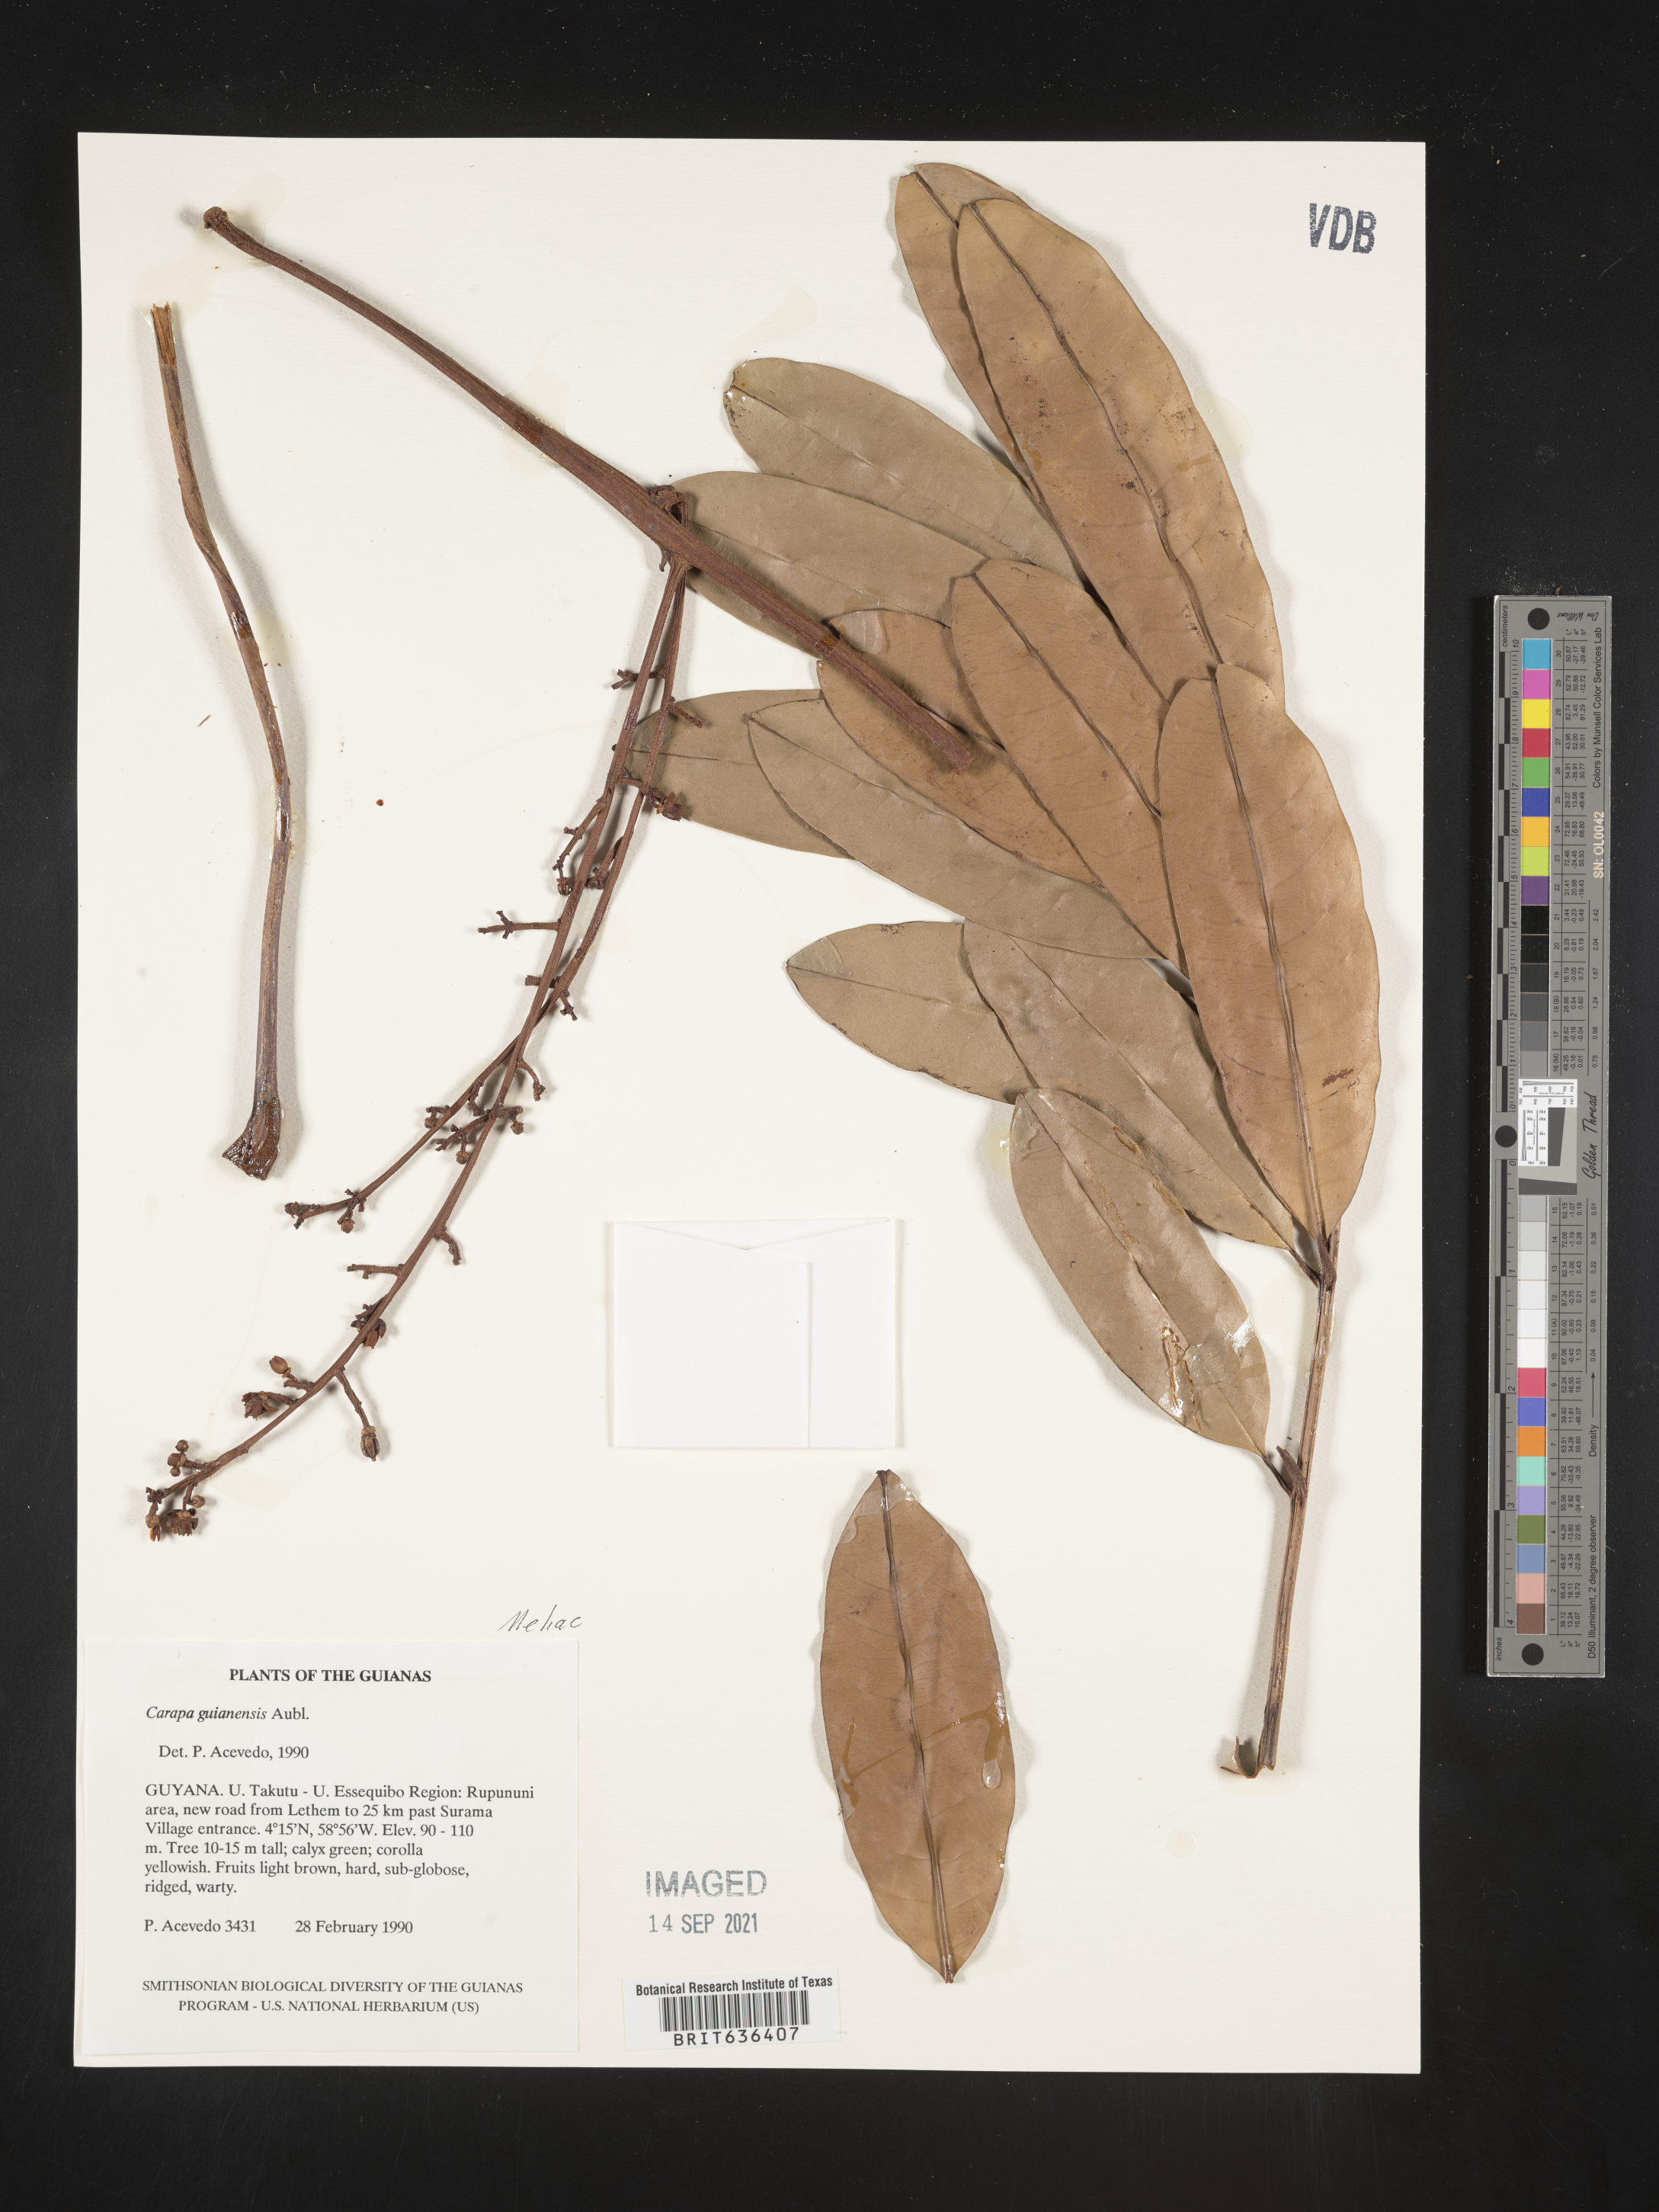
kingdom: Plantae
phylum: Tracheophyta
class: Magnoliopsida
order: Sapindales
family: Meliaceae
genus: Carapa
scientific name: Carapa
